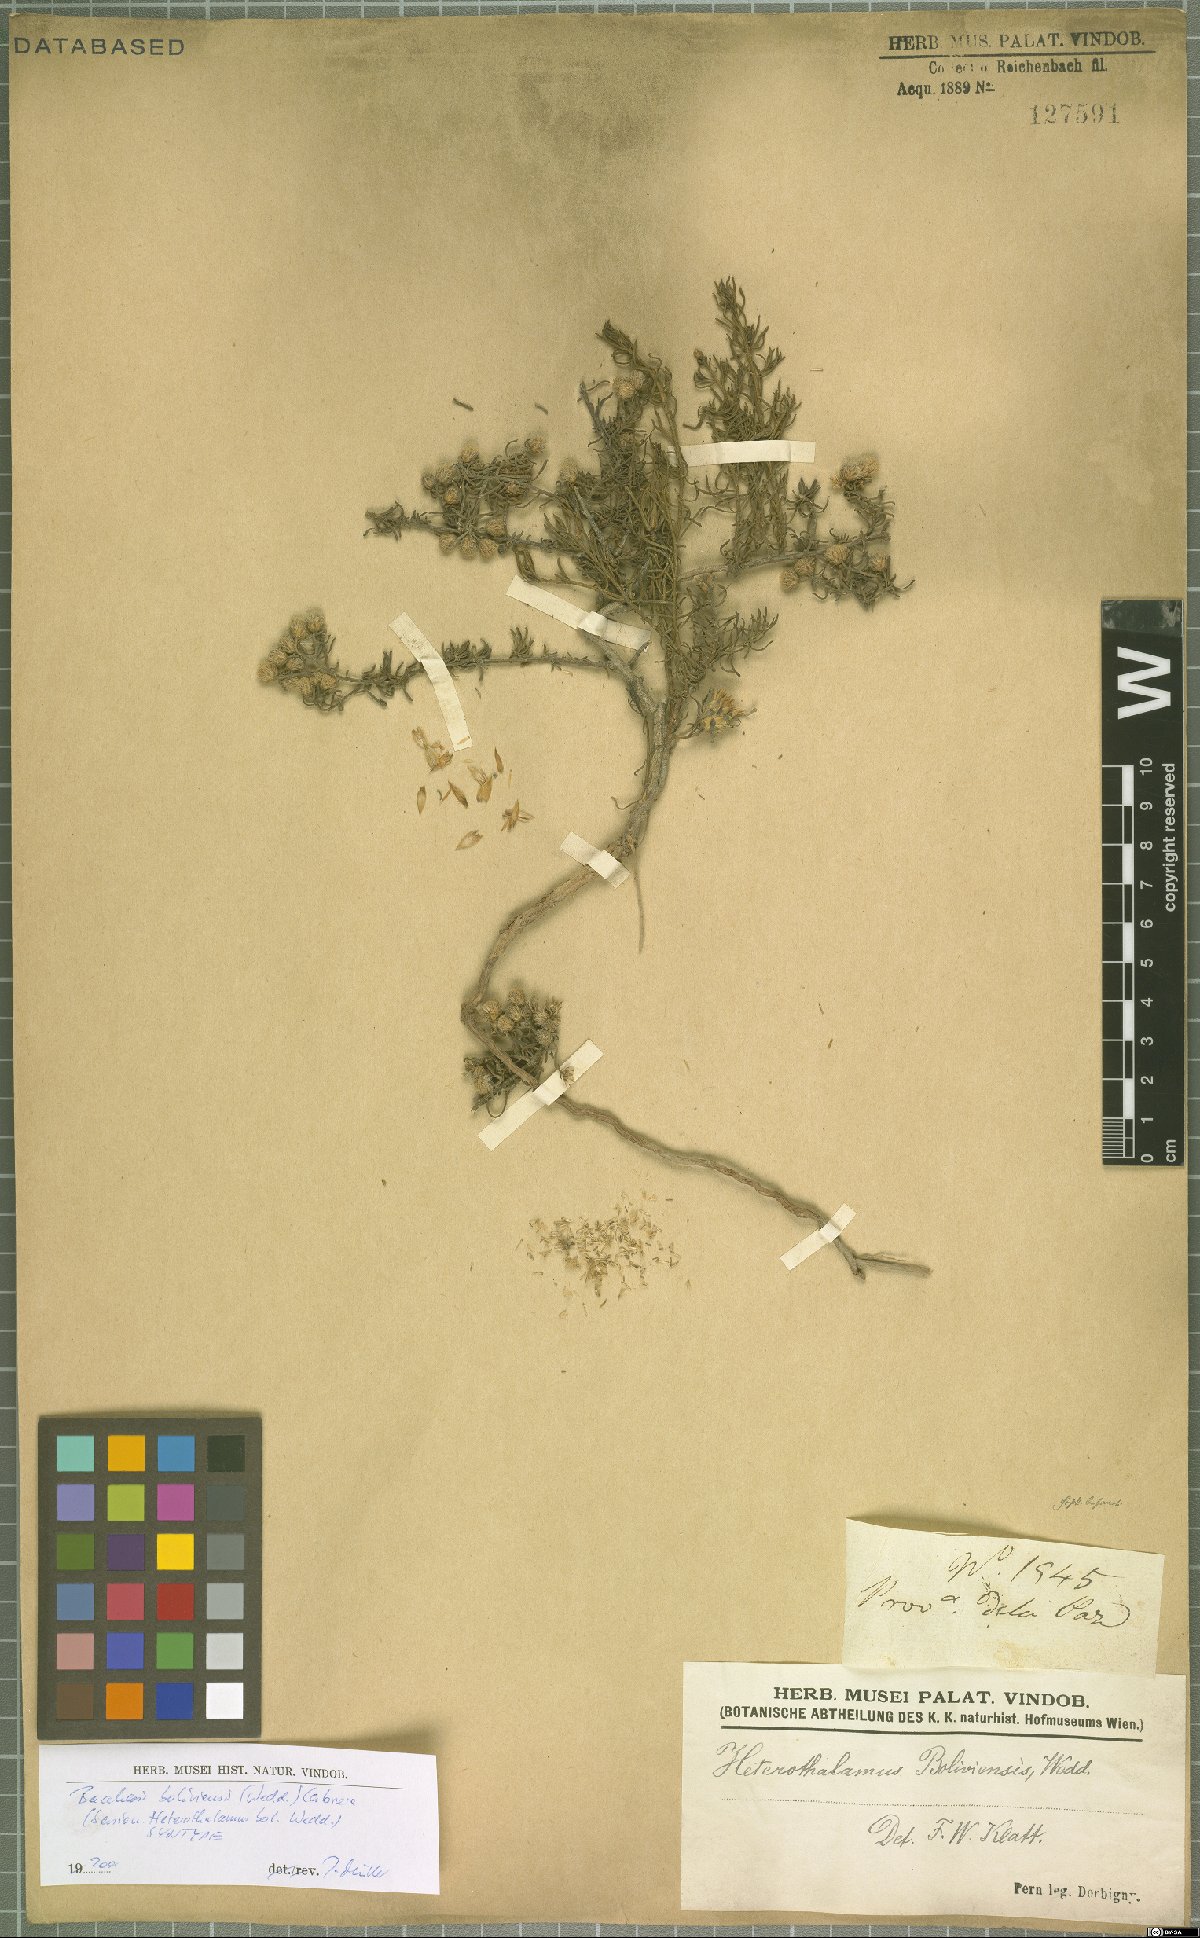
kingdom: Plantae
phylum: Tracheophyta
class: Magnoliopsida
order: Asterales
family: Asteraceae
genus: Baccharis
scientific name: Baccharis bolivensis
